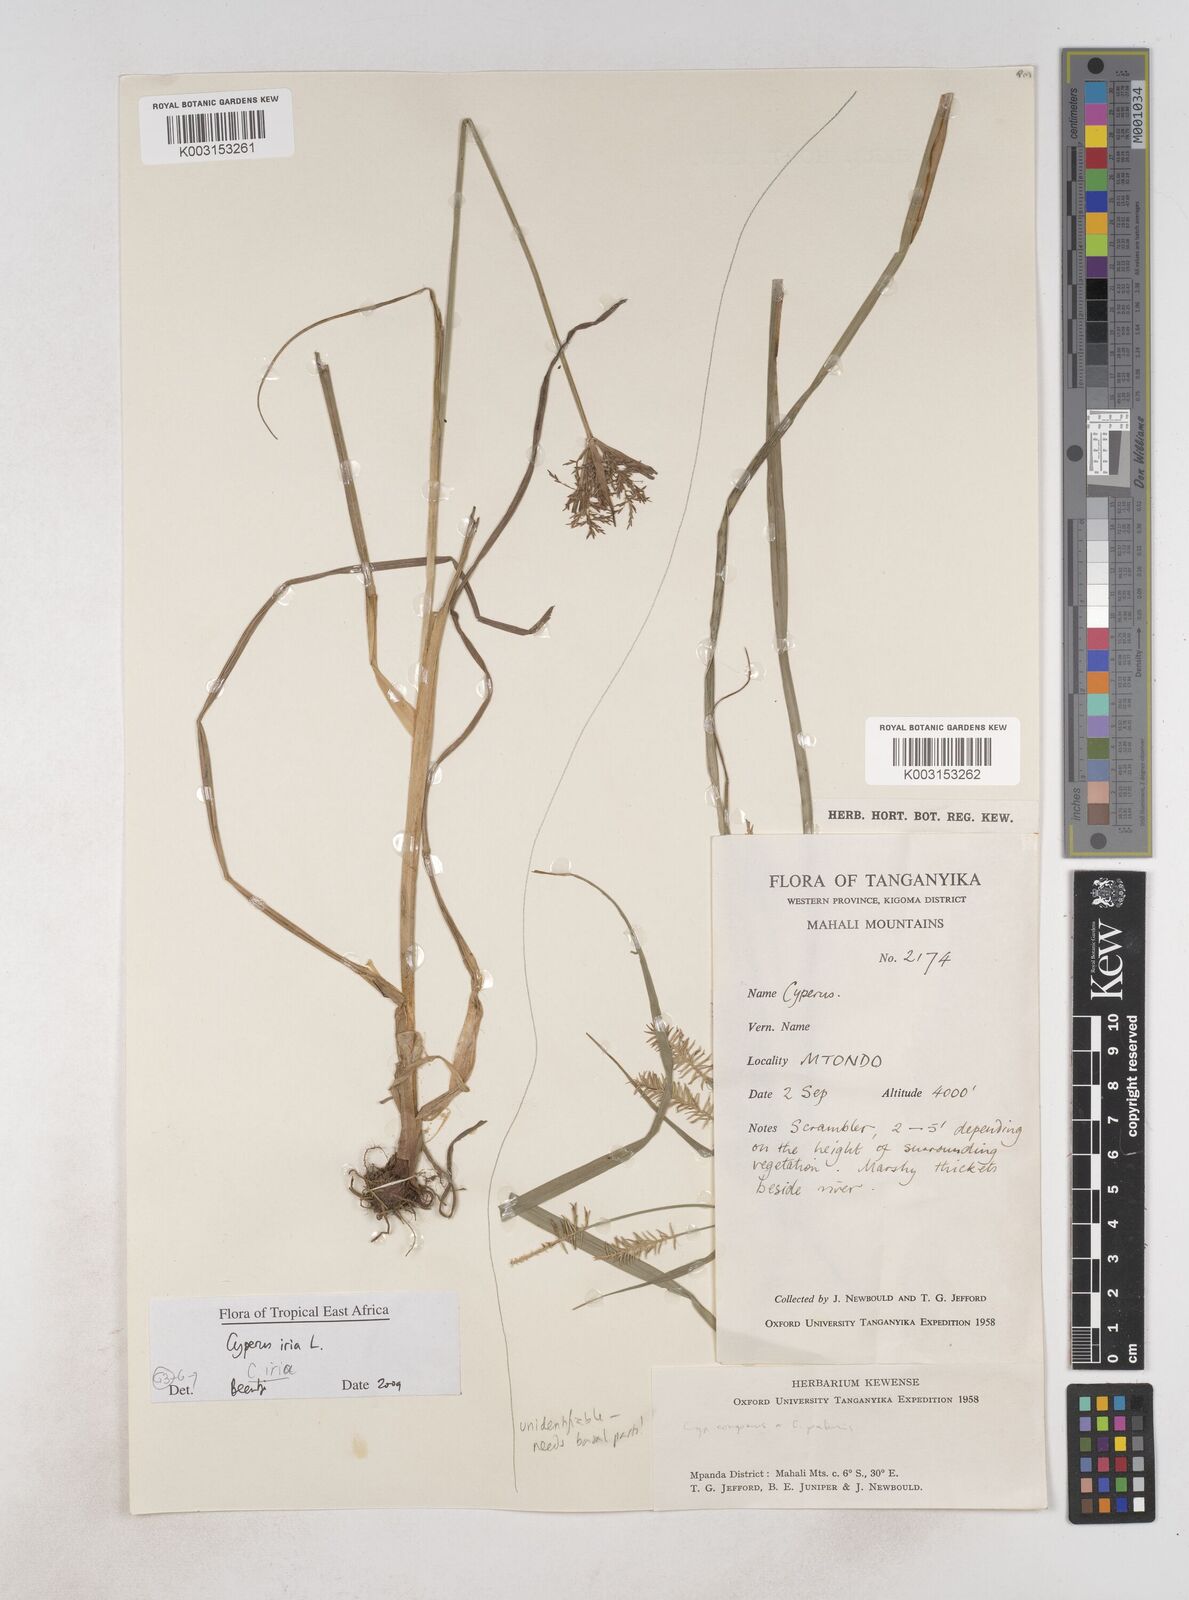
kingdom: Plantae
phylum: Tracheophyta
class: Liliopsida
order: Poales
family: Cyperaceae
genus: Cyperus
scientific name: Cyperus iria
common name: Ricefield flatsedge
